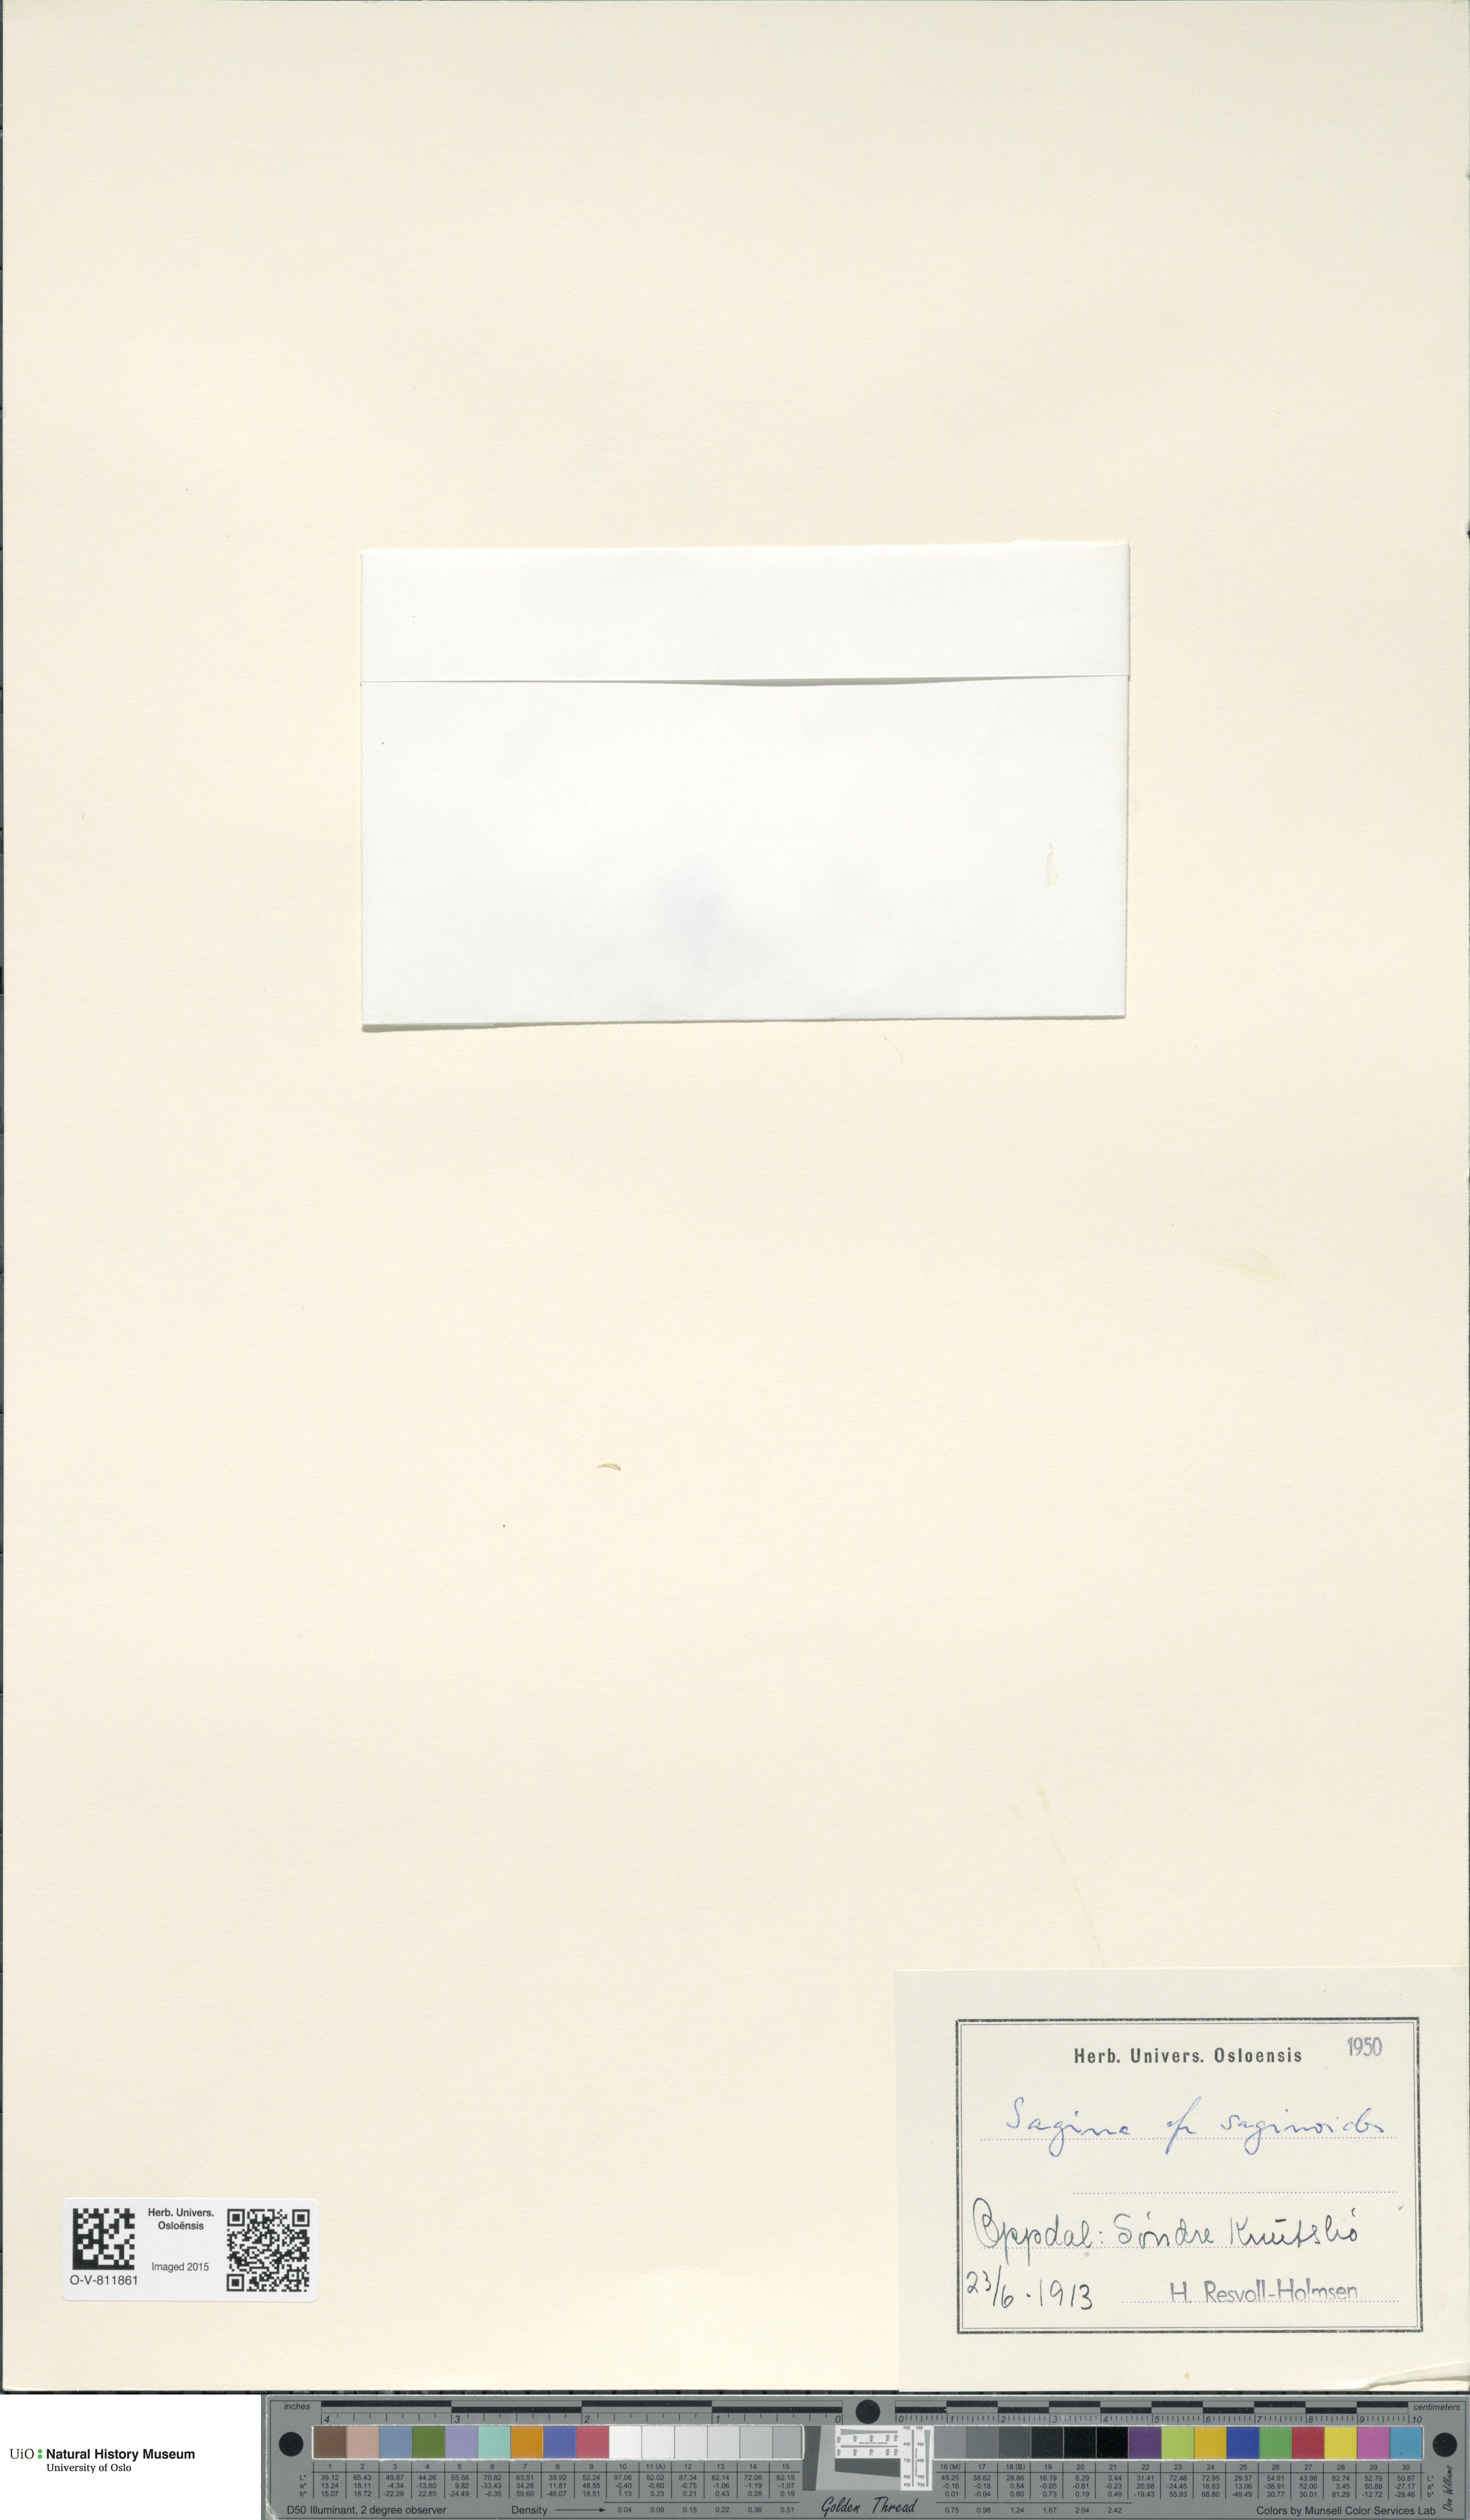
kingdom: Plantae
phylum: Tracheophyta
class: Magnoliopsida
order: Caryophyllales
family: Caryophyllaceae
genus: Sagina
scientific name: Sagina saginoides
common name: Alpine pearlwort
